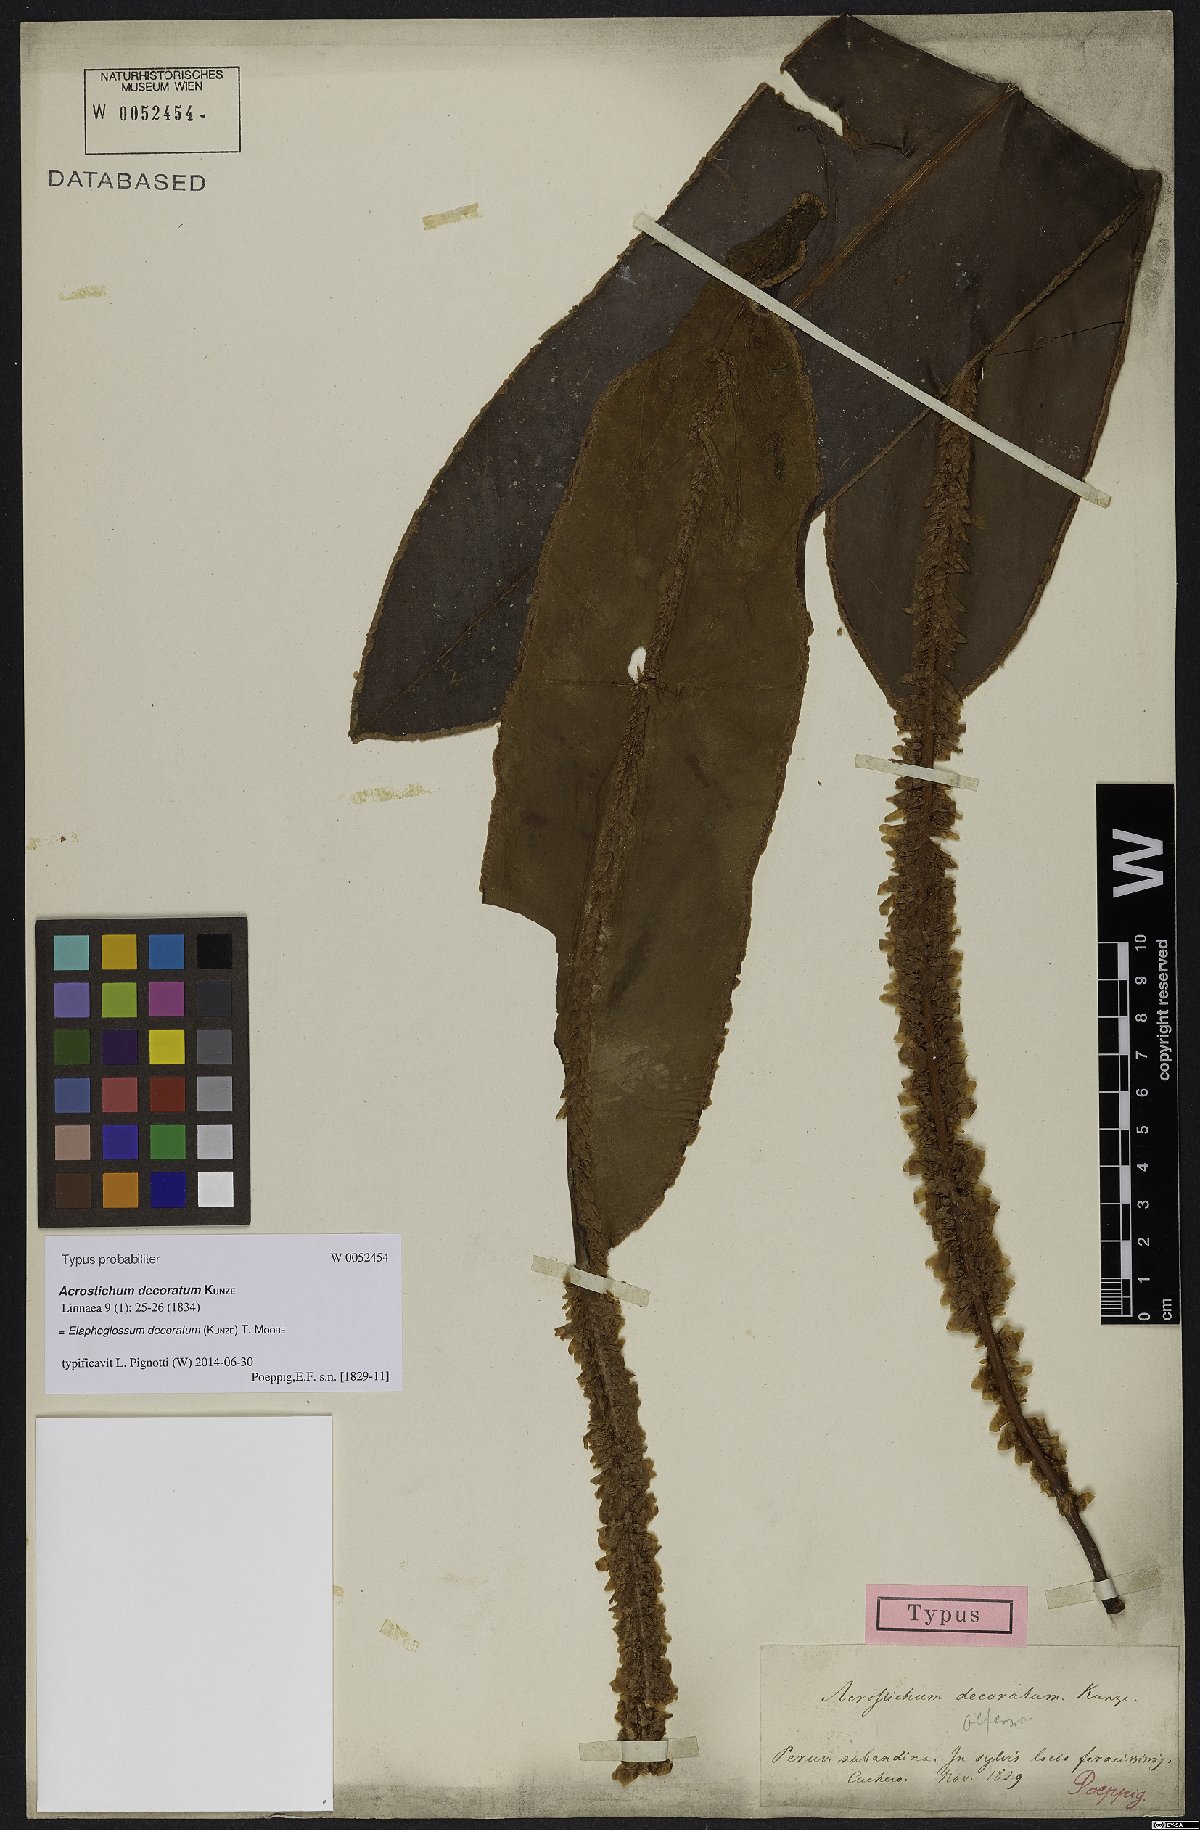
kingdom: Plantae
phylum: Tracheophyta
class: Polypodiopsida
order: Polypodiales
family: Dryopteridaceae
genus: Elaphoglossum
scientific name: Elaphoglossum decoratum
